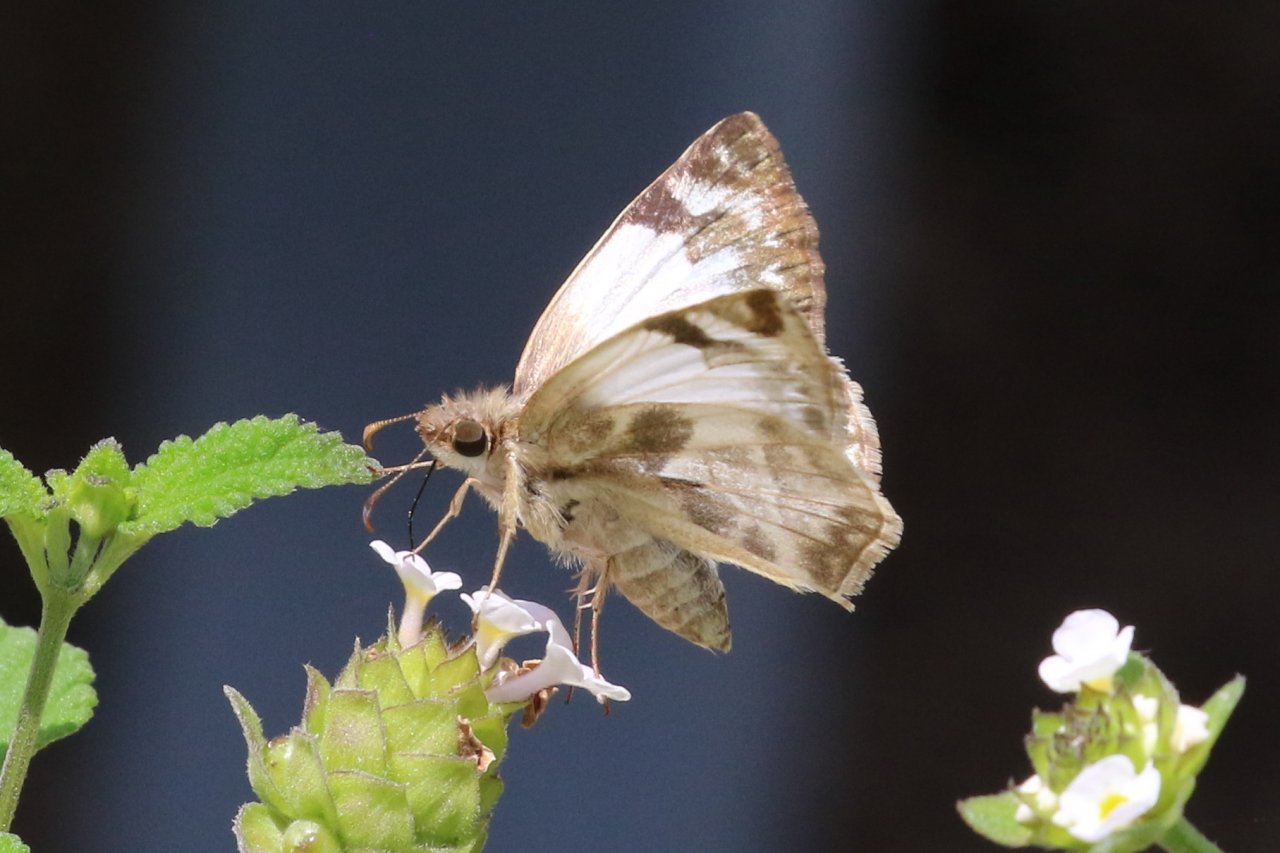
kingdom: Animalia
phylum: Arthropoda
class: Insecta
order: Lepidoptera
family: Hesperiidae
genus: Heliopetes
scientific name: Heliopetes laviana
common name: Laviana White-Skipper
